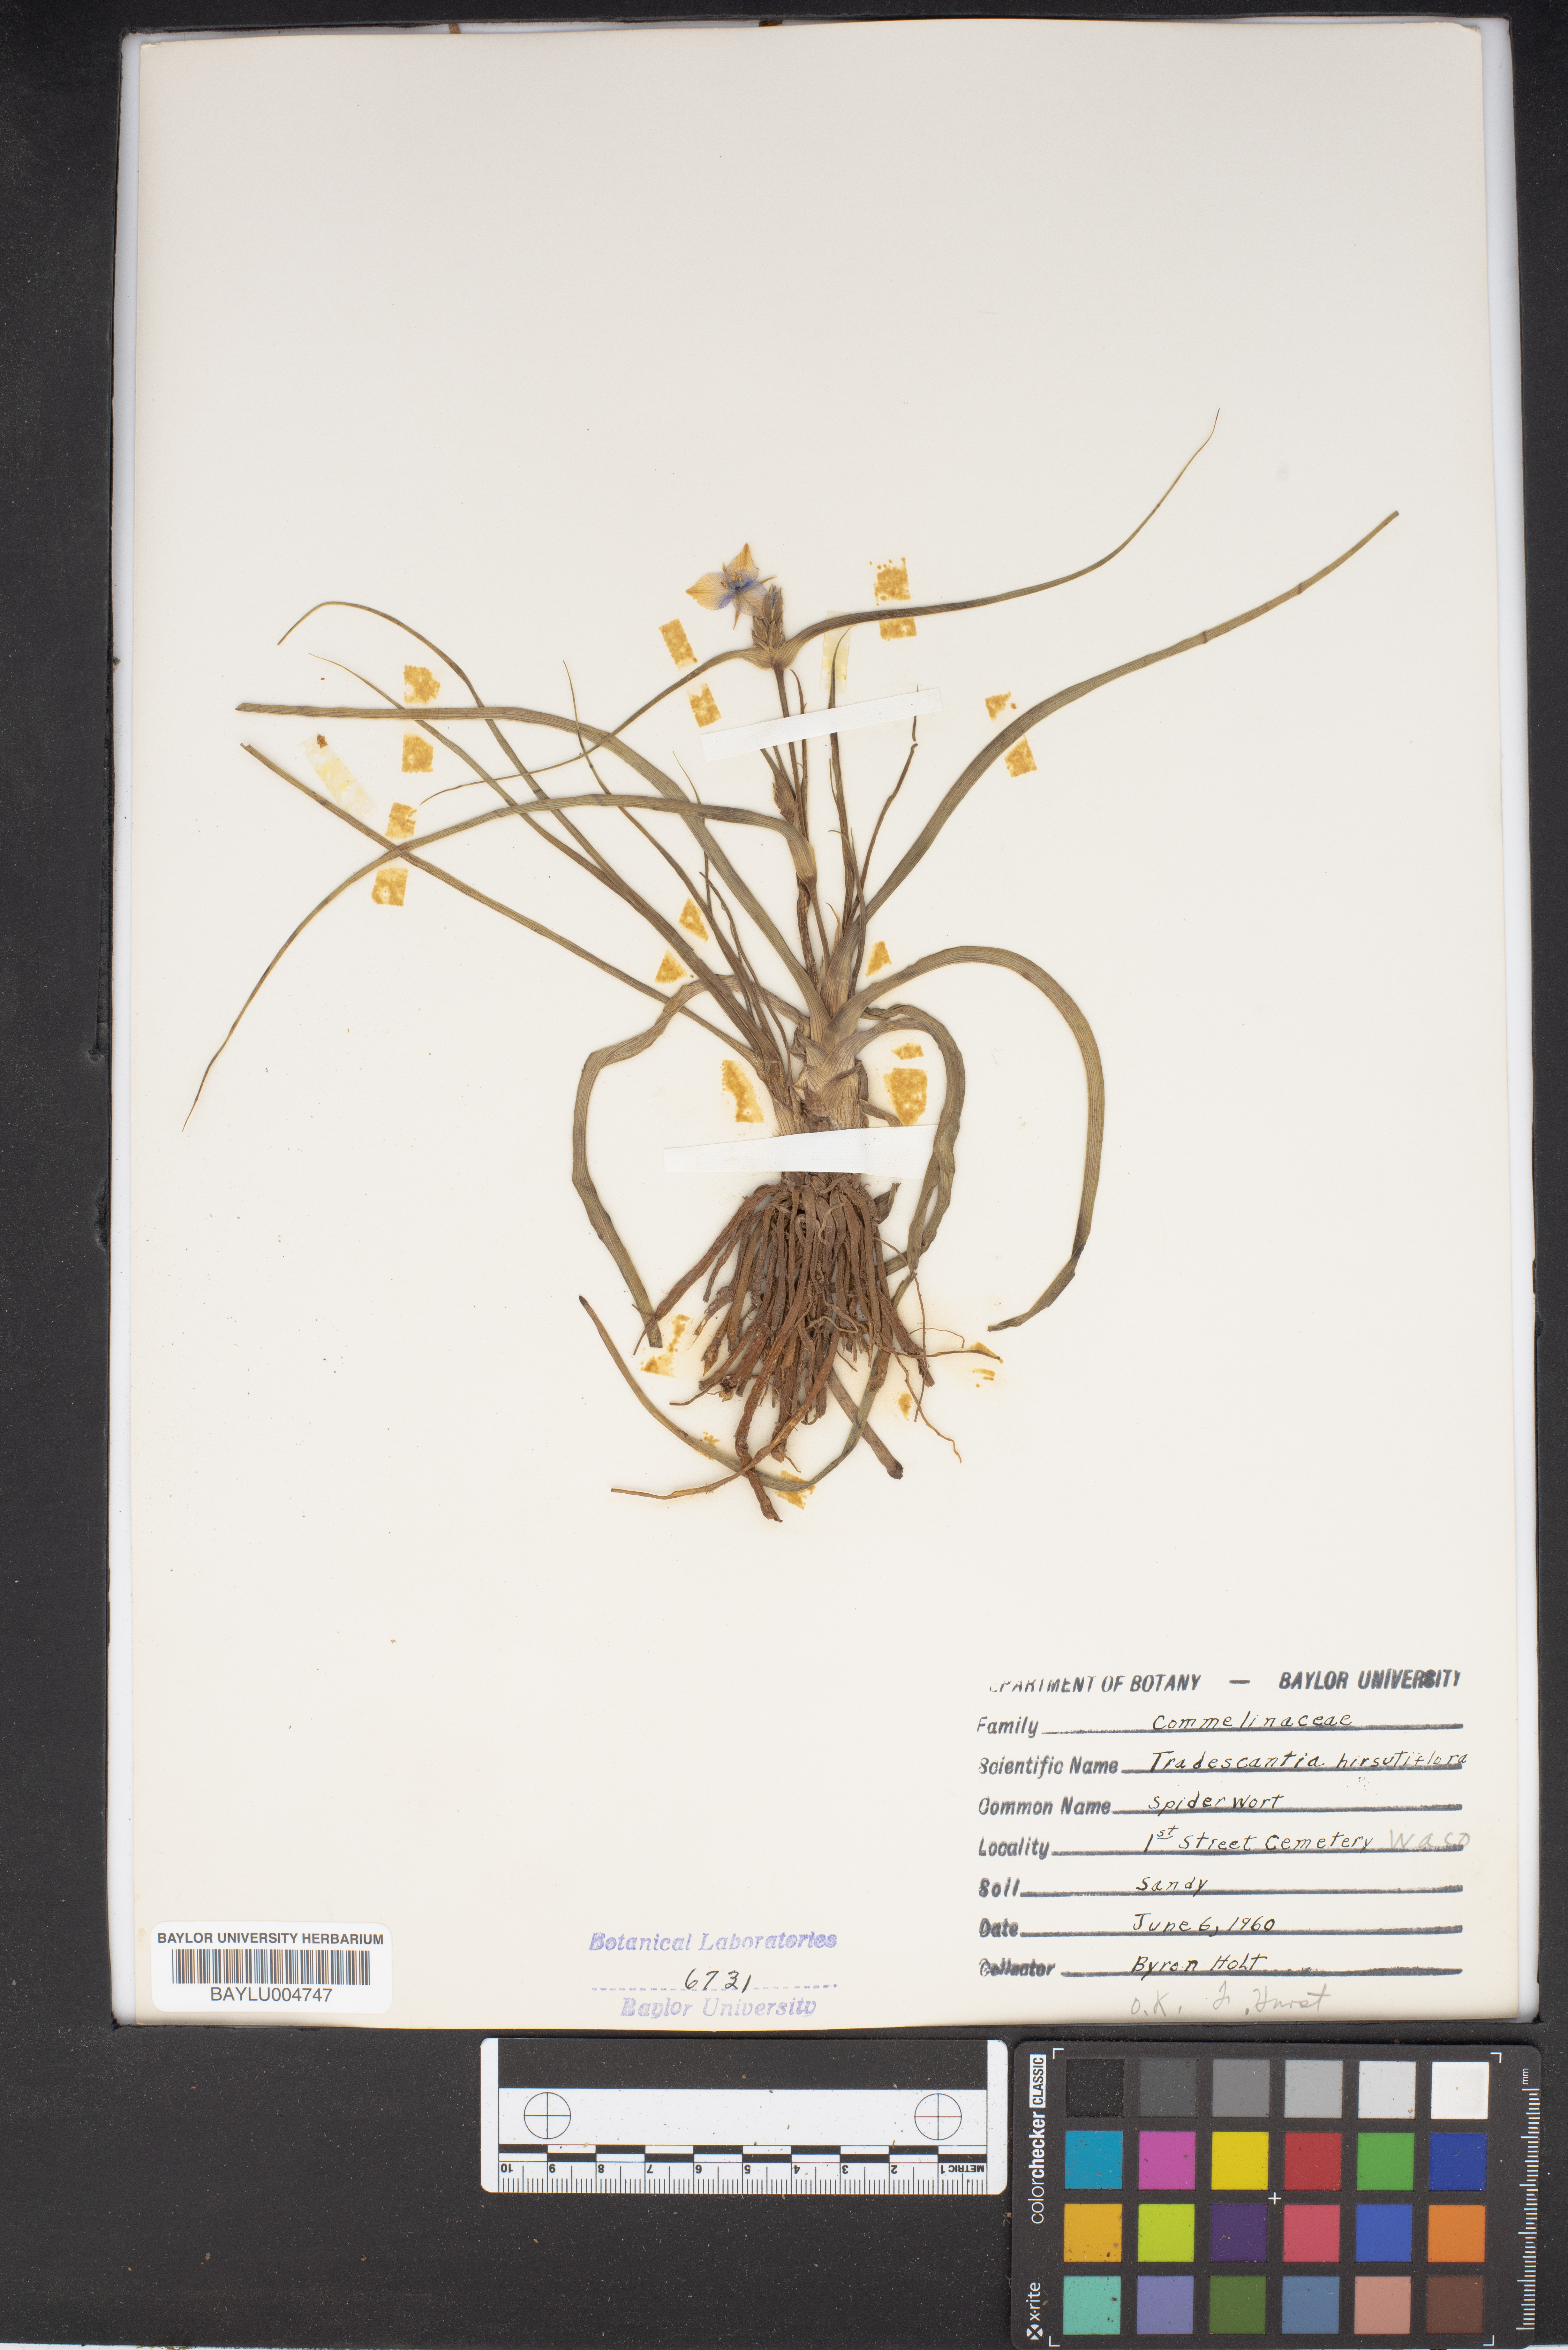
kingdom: Plantae
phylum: Tracheophyta
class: Liliopsida
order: Commelinales
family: Commelinaceae
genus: Tradescantia
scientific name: Tradescantia hirsutiflora
